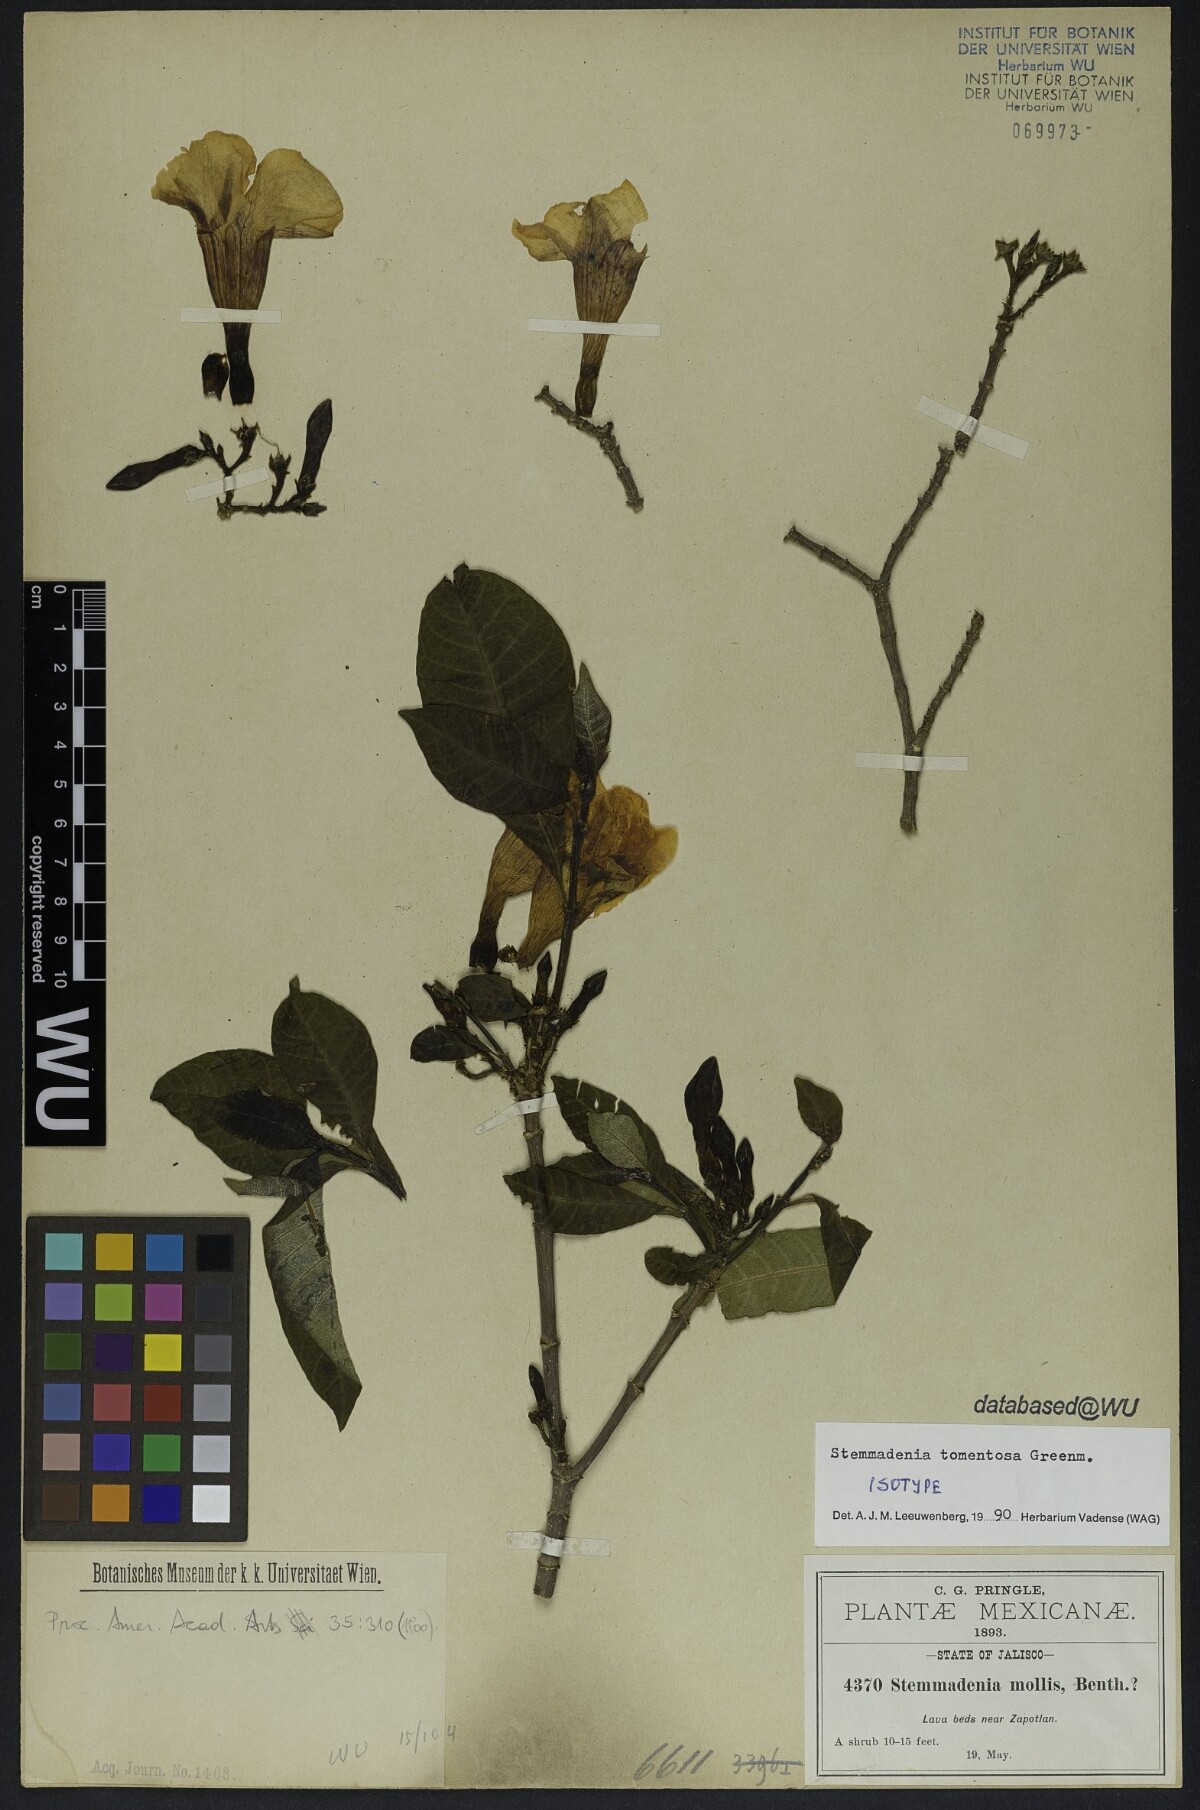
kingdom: Plantae
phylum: Tracheophyta
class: Magnoliopsida
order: Gentianales
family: Apocynaceae
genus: Tabernaemontana
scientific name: Tabernaemontana tomentosa
